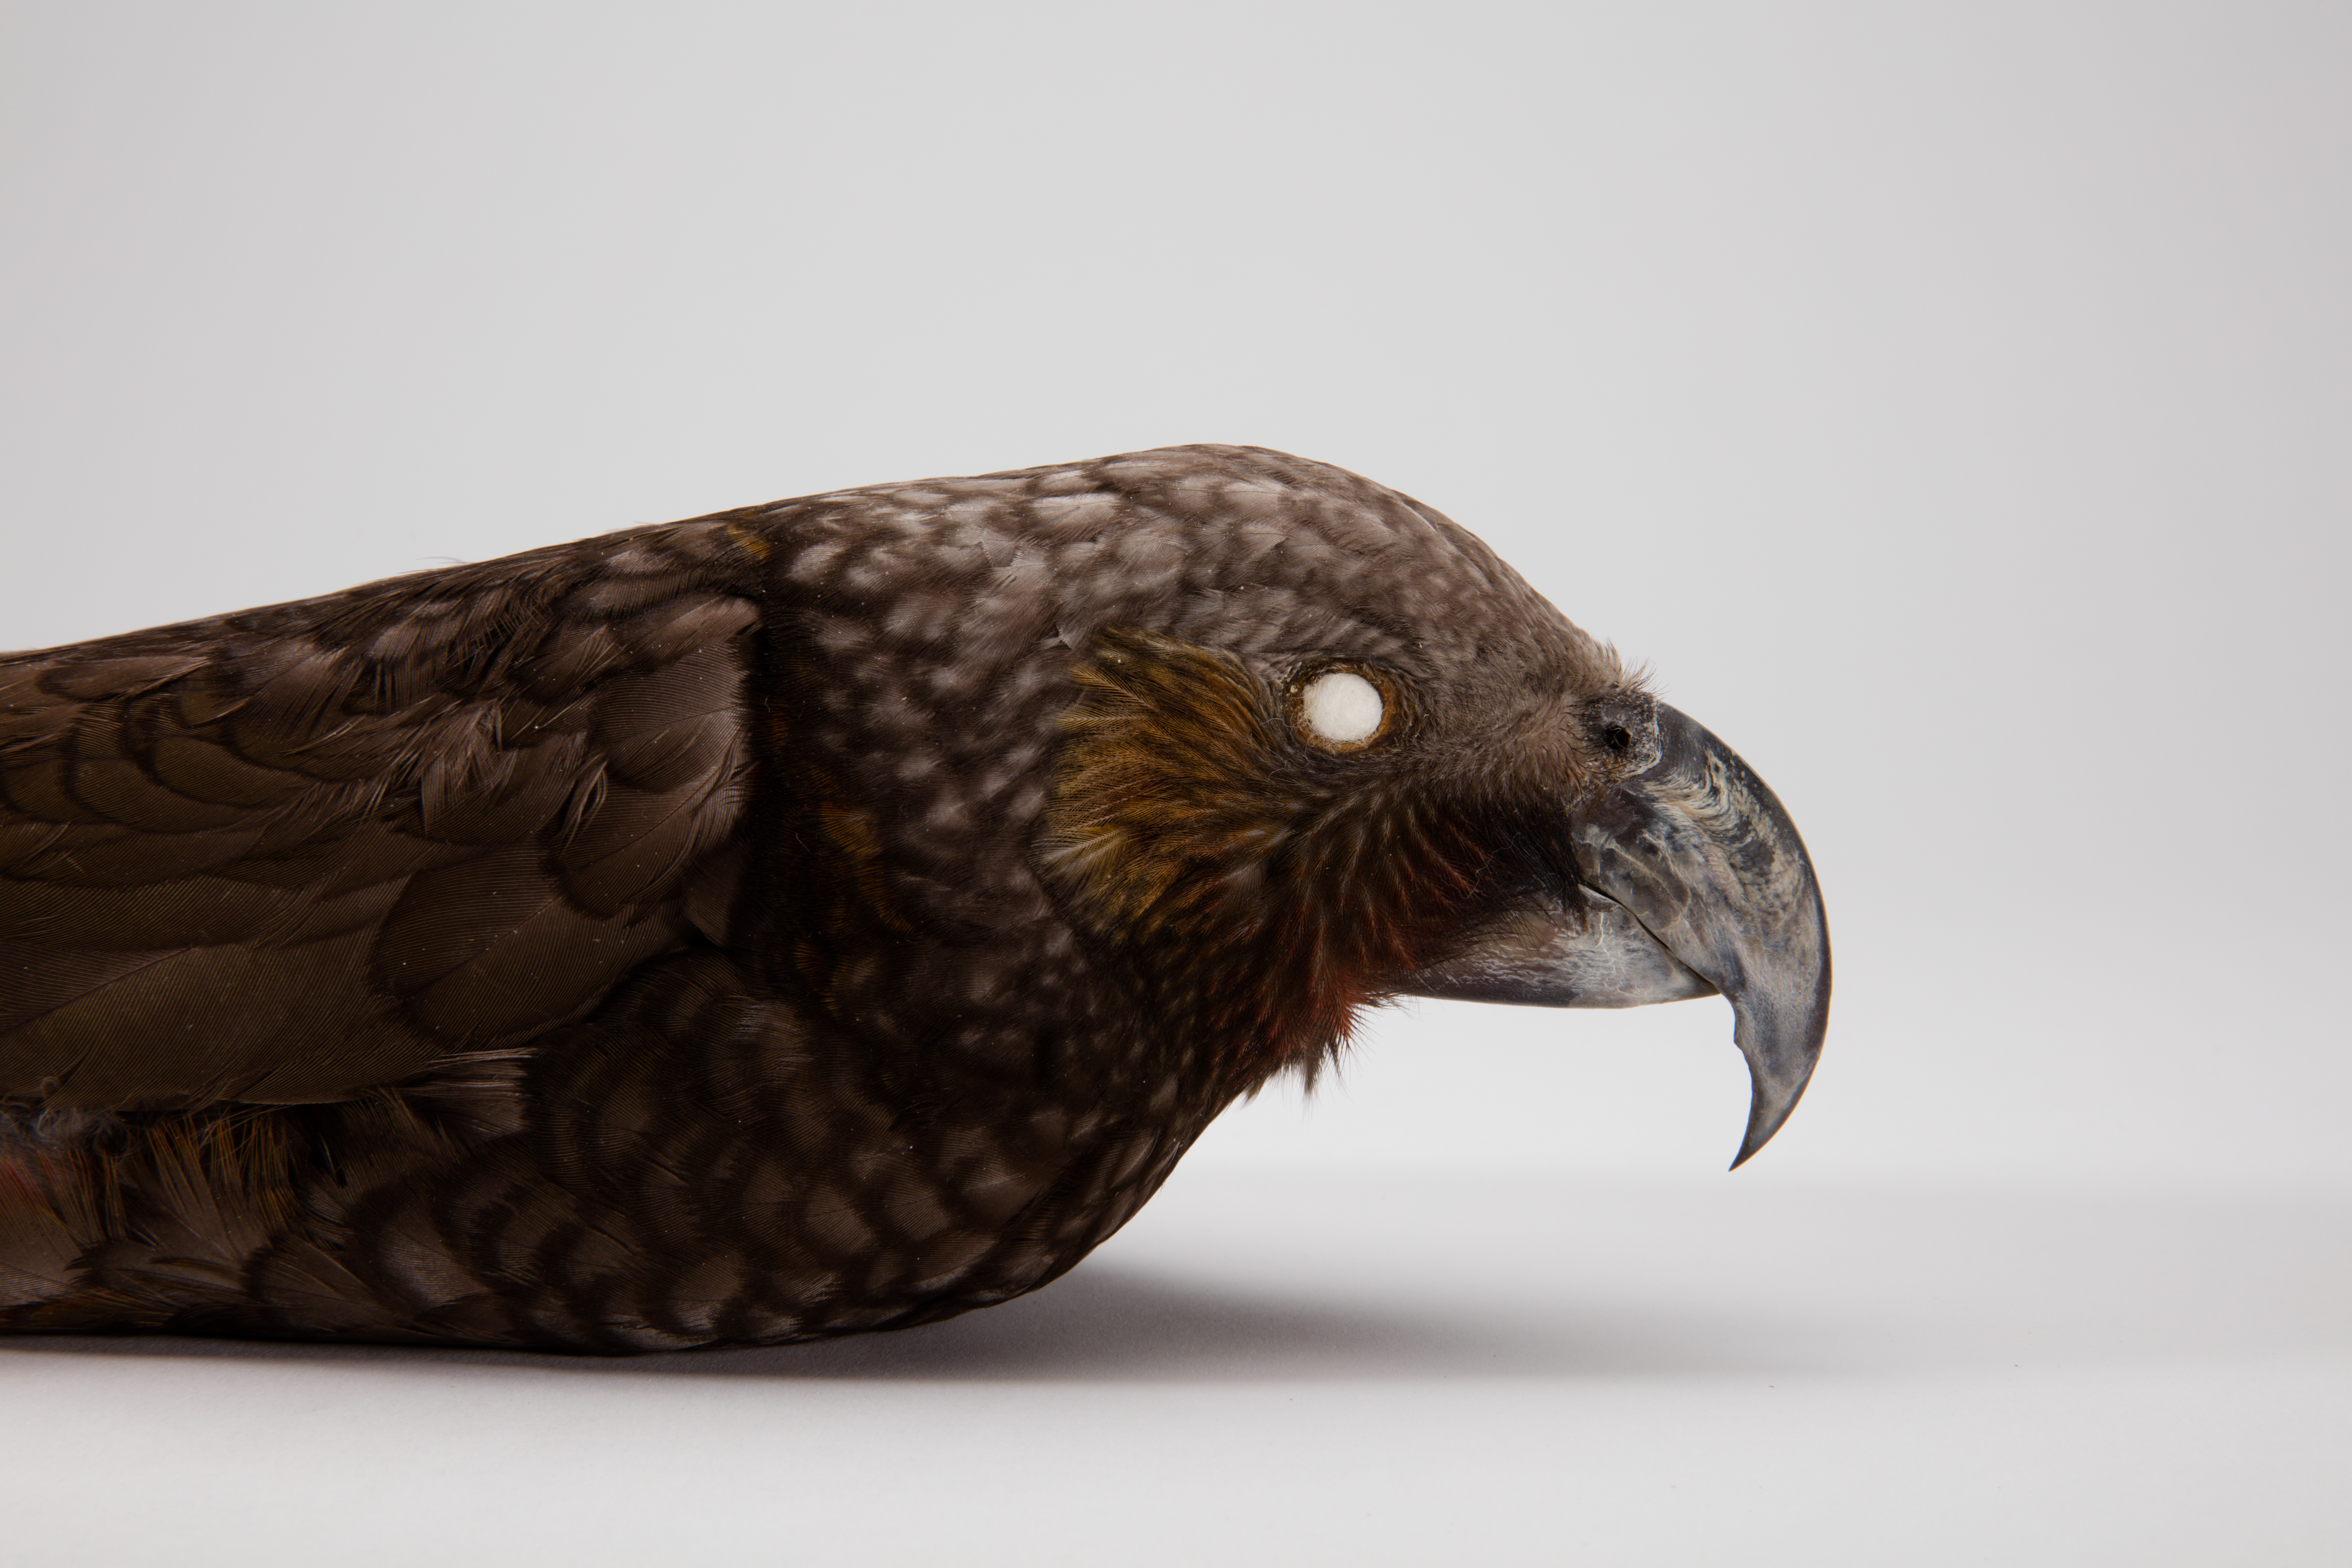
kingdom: Animalia
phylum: Chordata
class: Aves
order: Psittaciformes
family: Psittacidae
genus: Nestor
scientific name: Nestor meridionalis
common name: New zealand kaka
